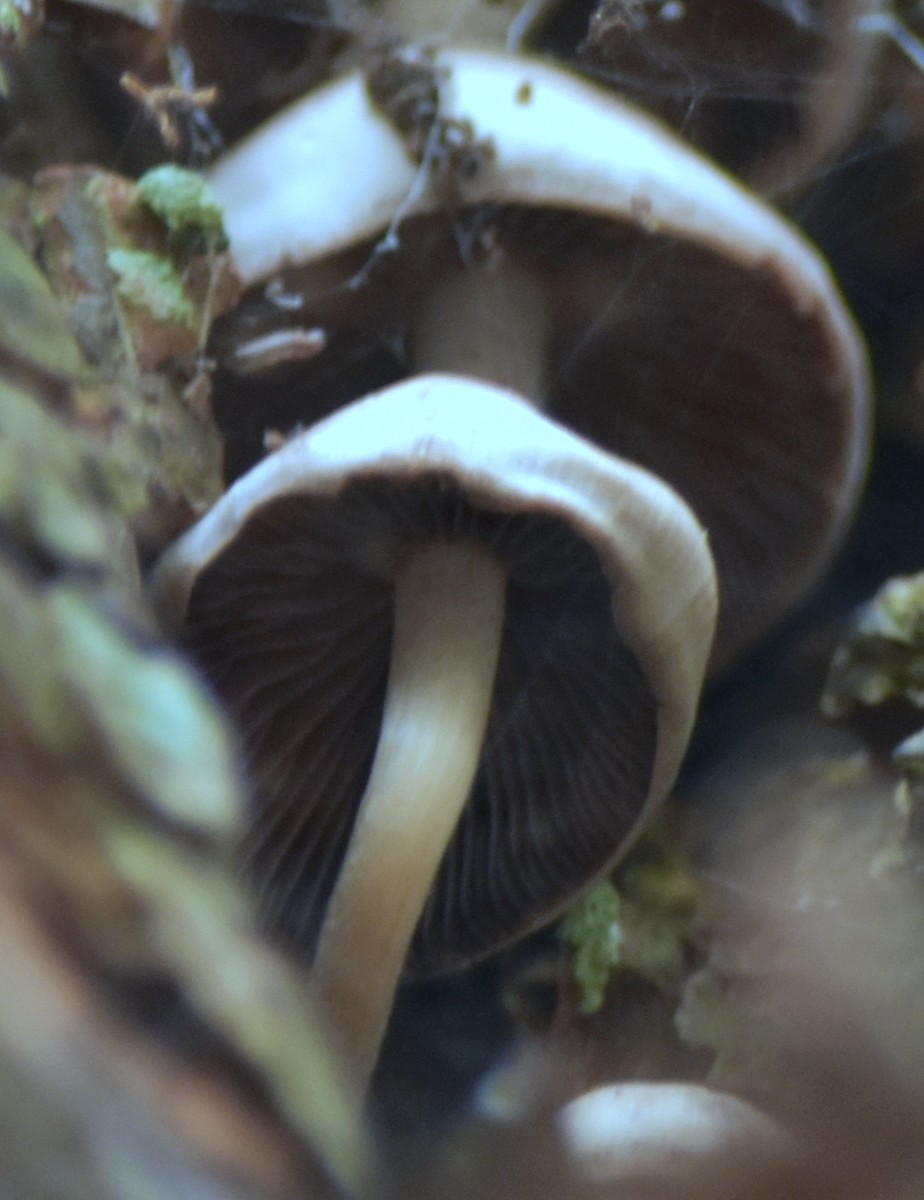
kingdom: Fungi
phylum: Basidiomycota
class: Agaricomycetes
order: Agaricales
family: Psathyrellaceae
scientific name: Psathyrellaceae
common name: mørkhatfamilien
